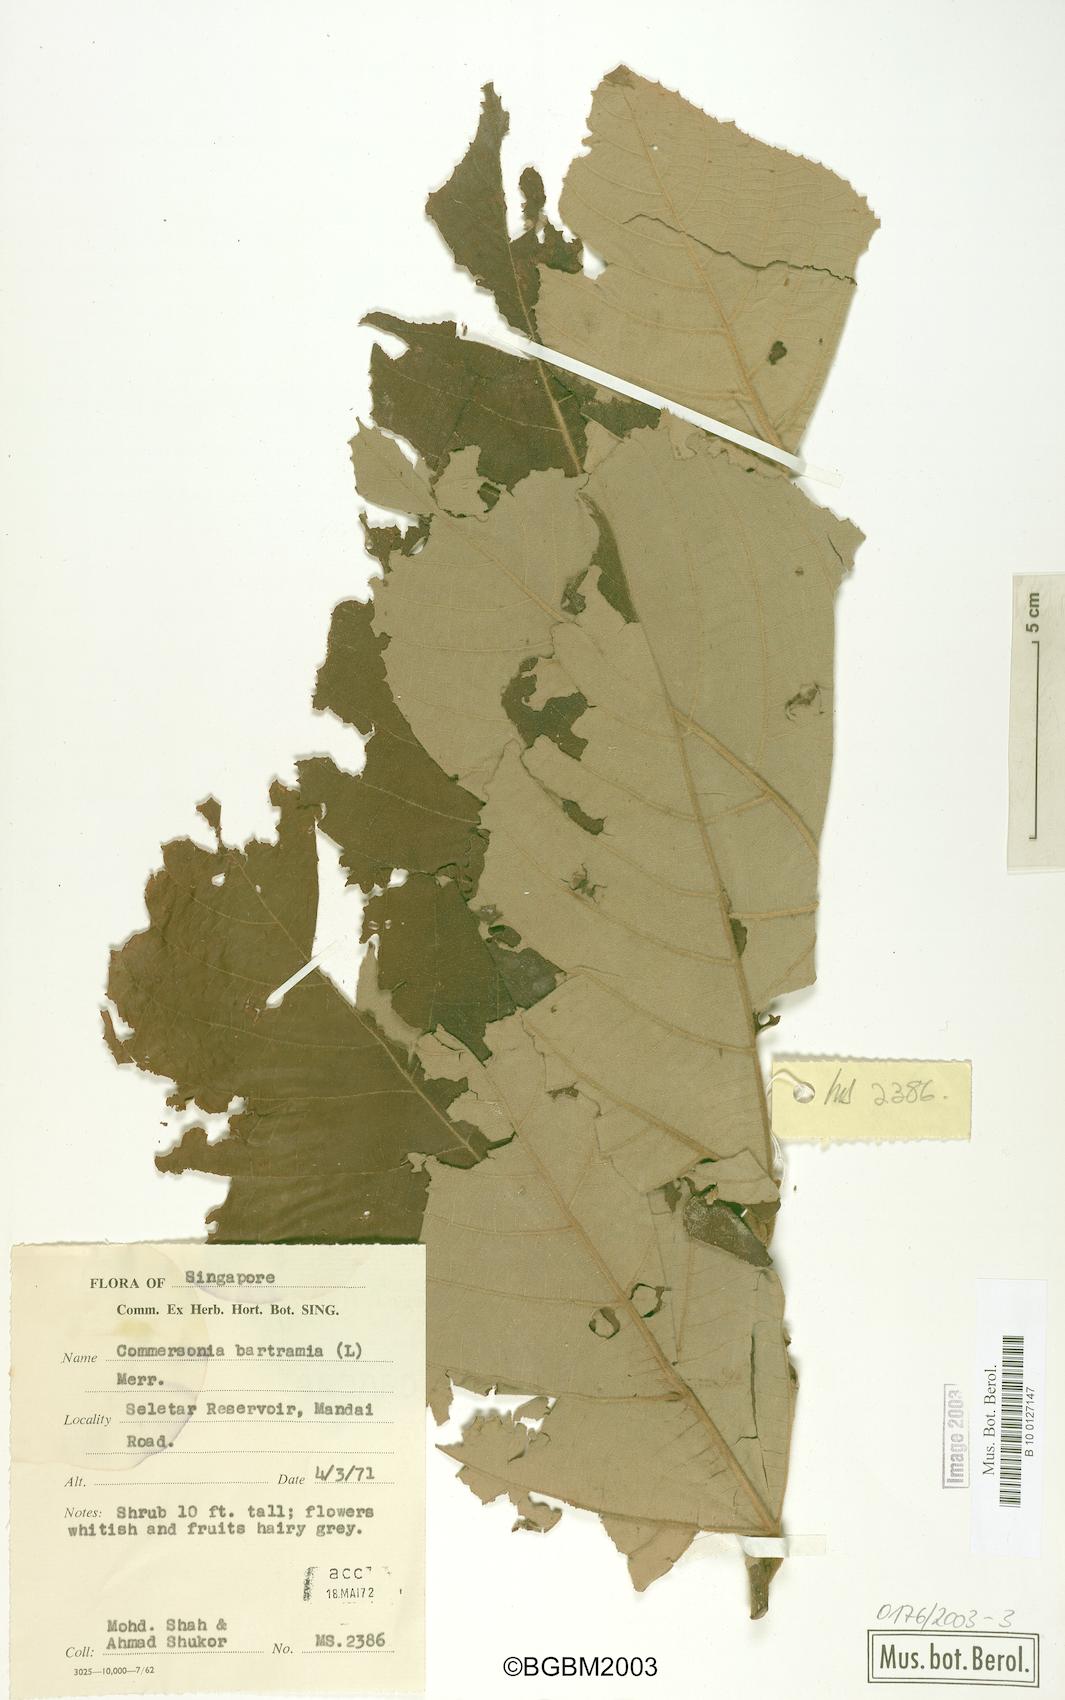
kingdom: Plantae
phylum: Tracheophyta
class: Magnoliopsida
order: Malvales
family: Malvaceae
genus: Commersonia
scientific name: Commersonia bartramia
